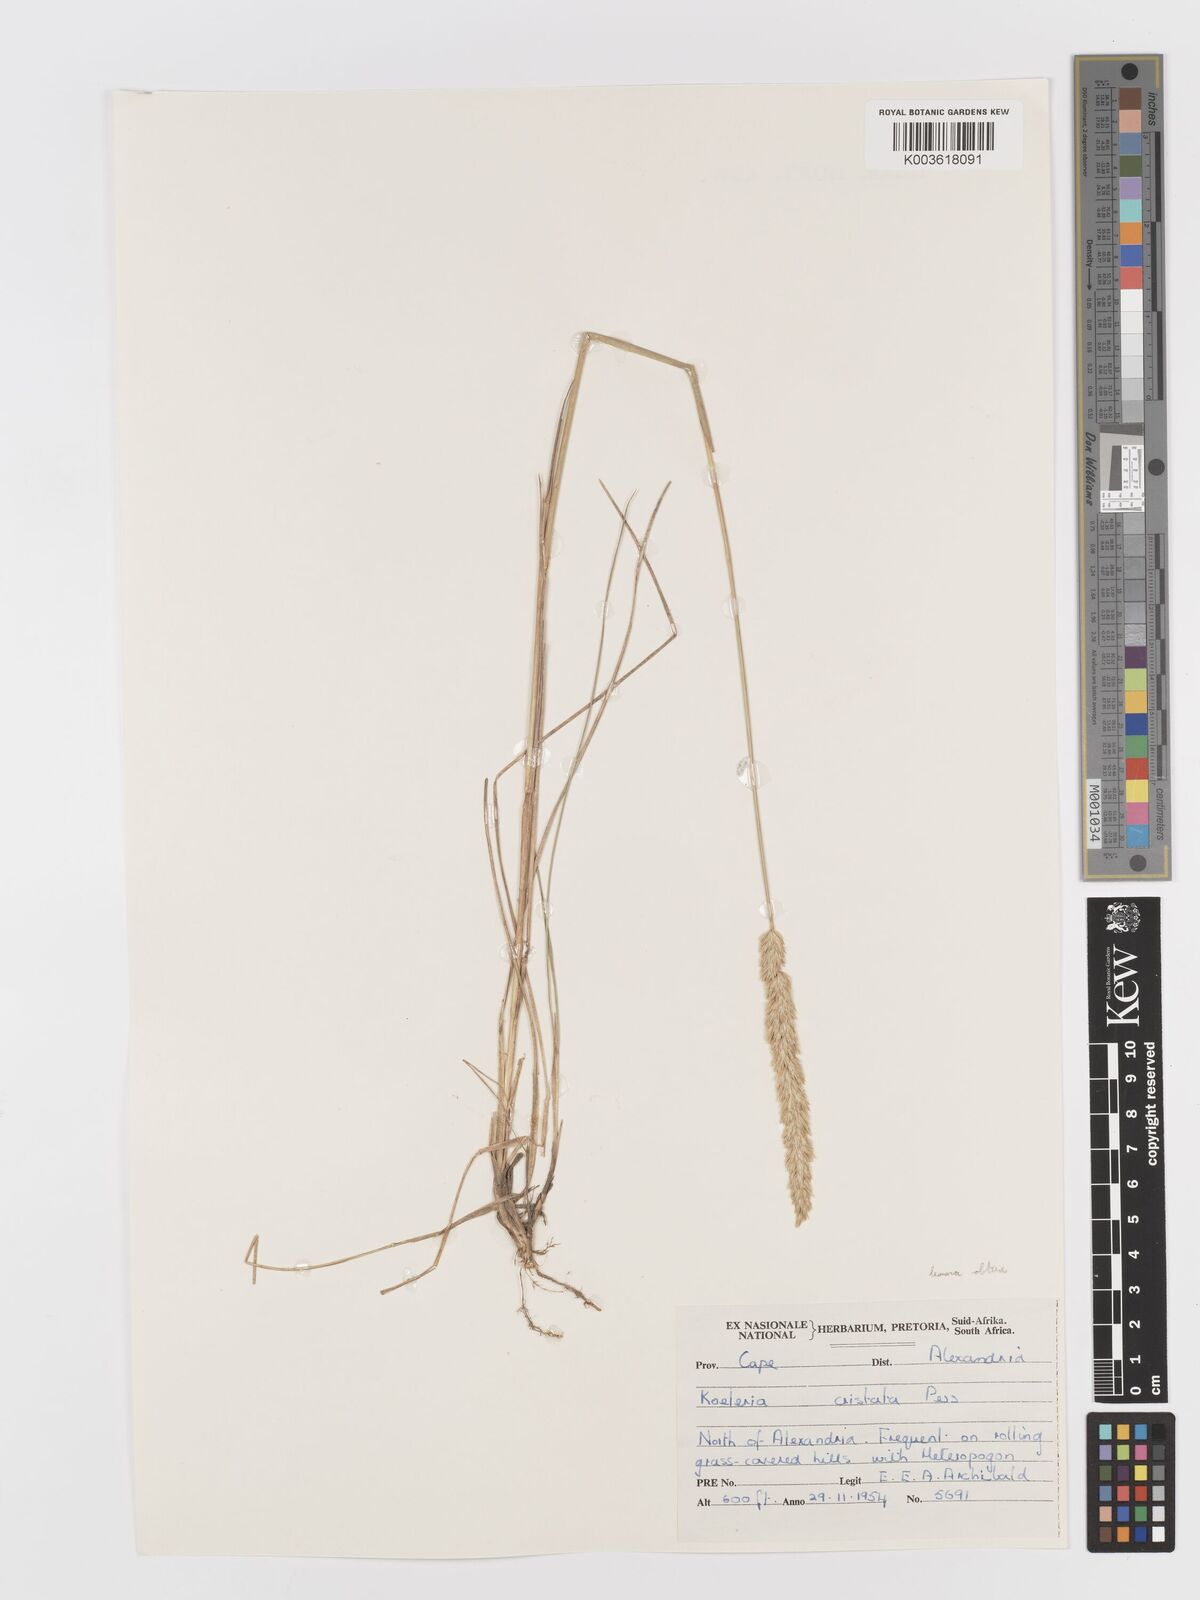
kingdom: Plantae
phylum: Tracheophyta
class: Liliopsida
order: Poales
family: Poaceae
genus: Koeleria
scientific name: Koeleria capensis
